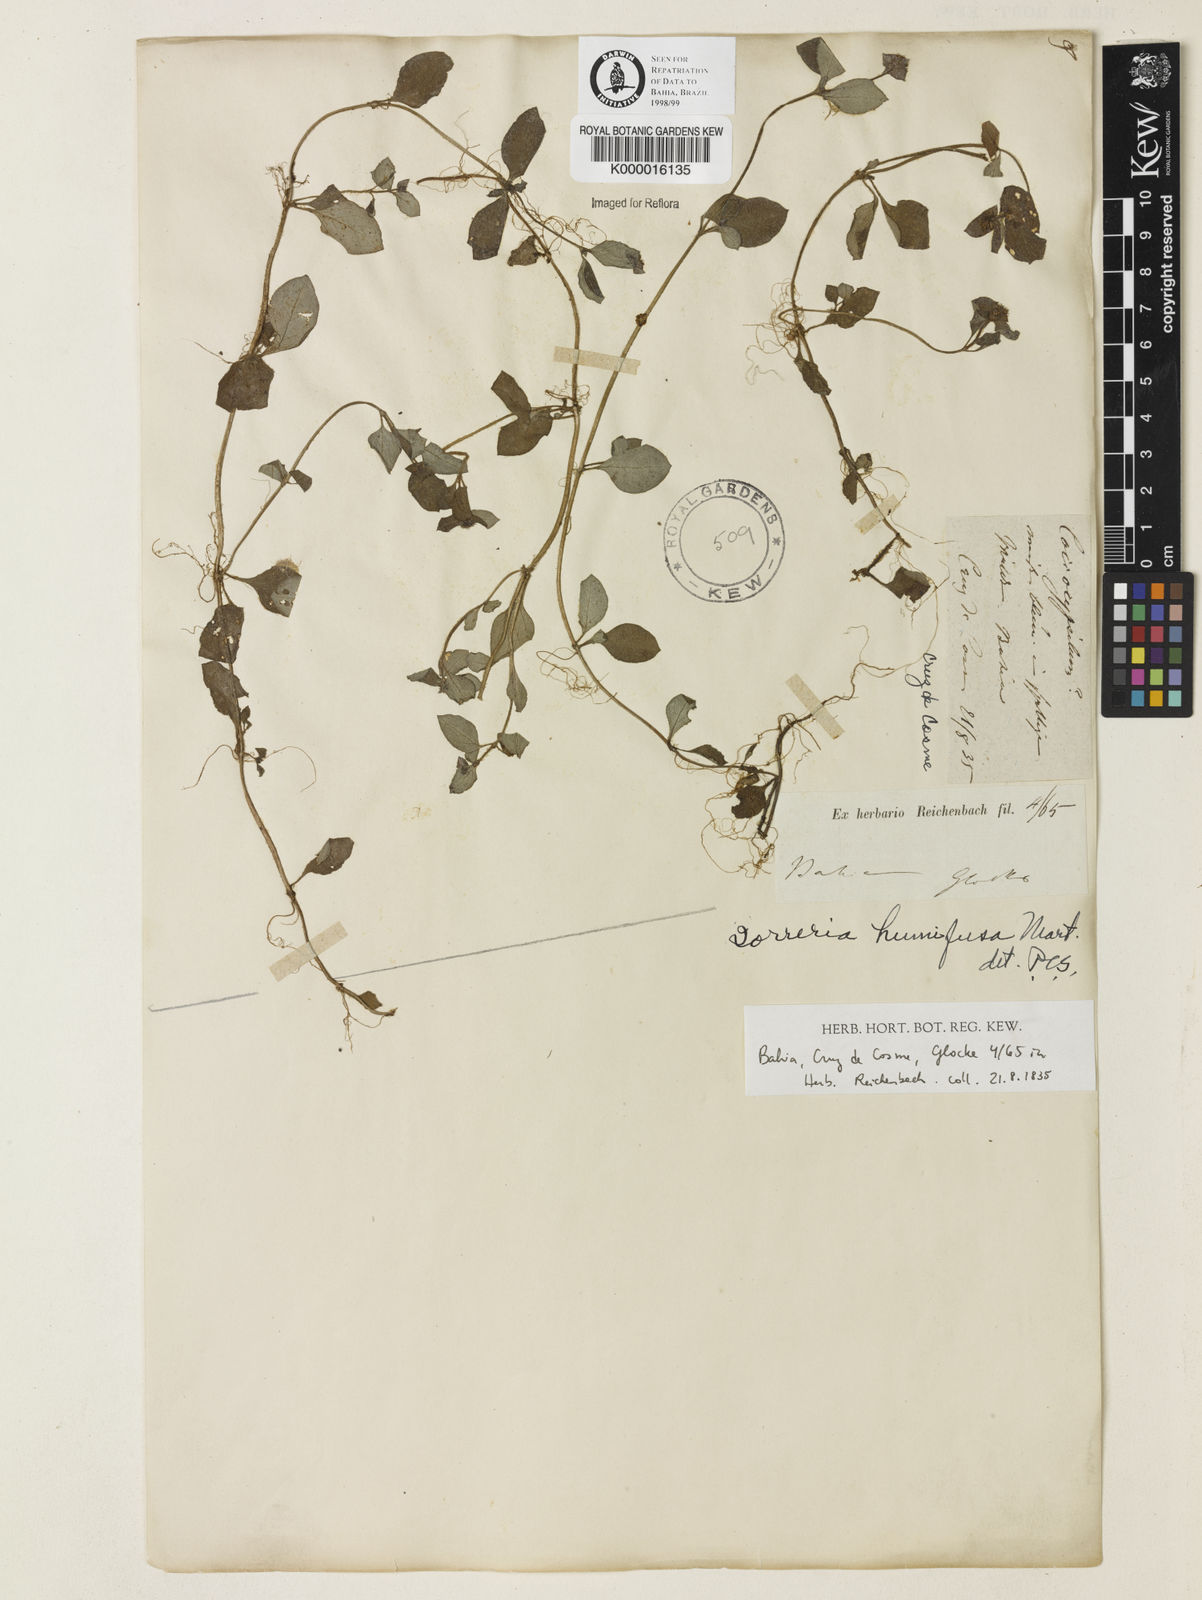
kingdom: Plantae
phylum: Tracheophyta
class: Magnoliopsida
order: Gentianales
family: Rubiaceae
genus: Spermacoce
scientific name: Spermacoce scabiosoides
